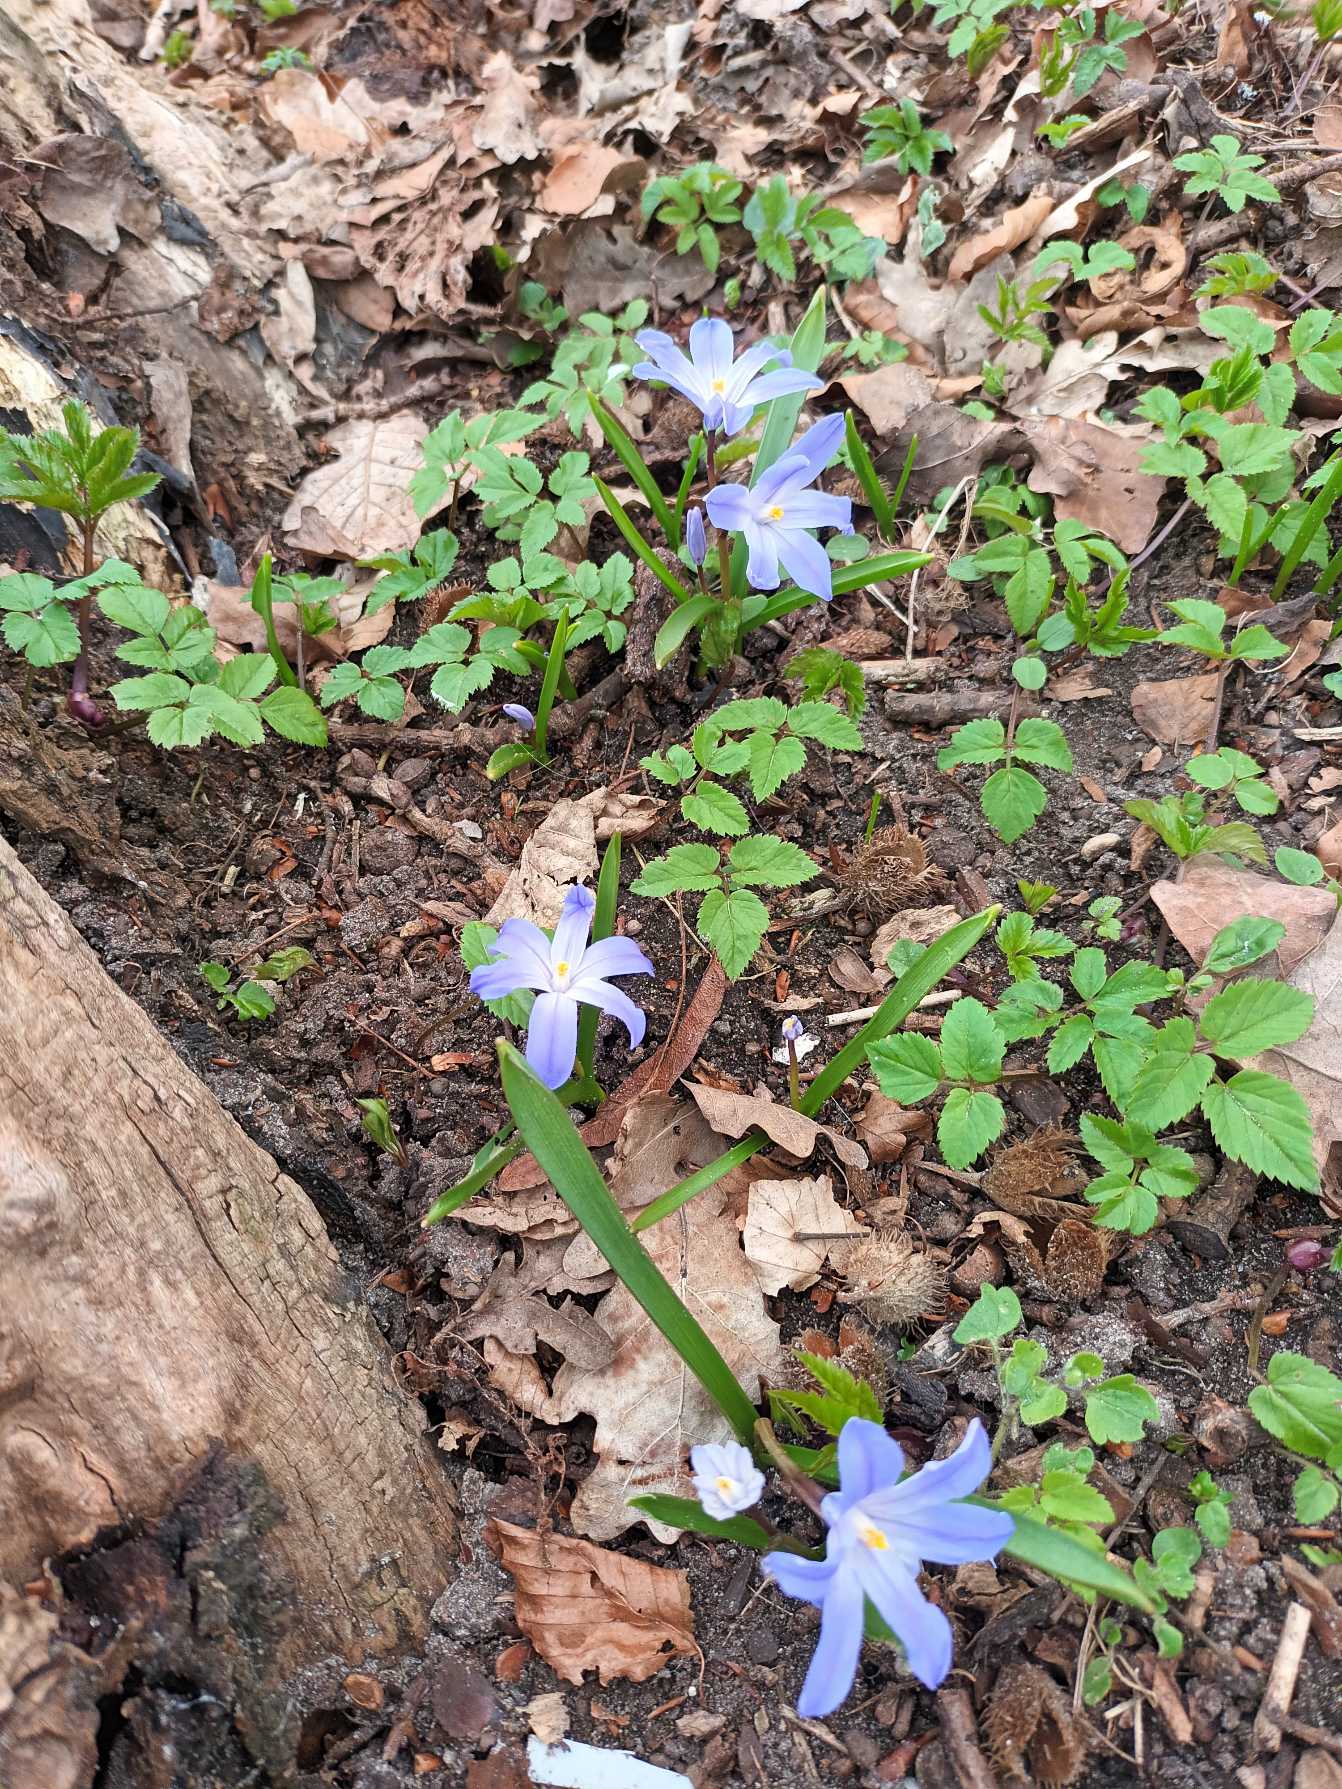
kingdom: Plantae
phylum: Tracheophyta
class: Liliopsida
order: Asparagales
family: Asparagaceae
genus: Scilla
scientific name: Scilla luciliae
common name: Stor snepryd
